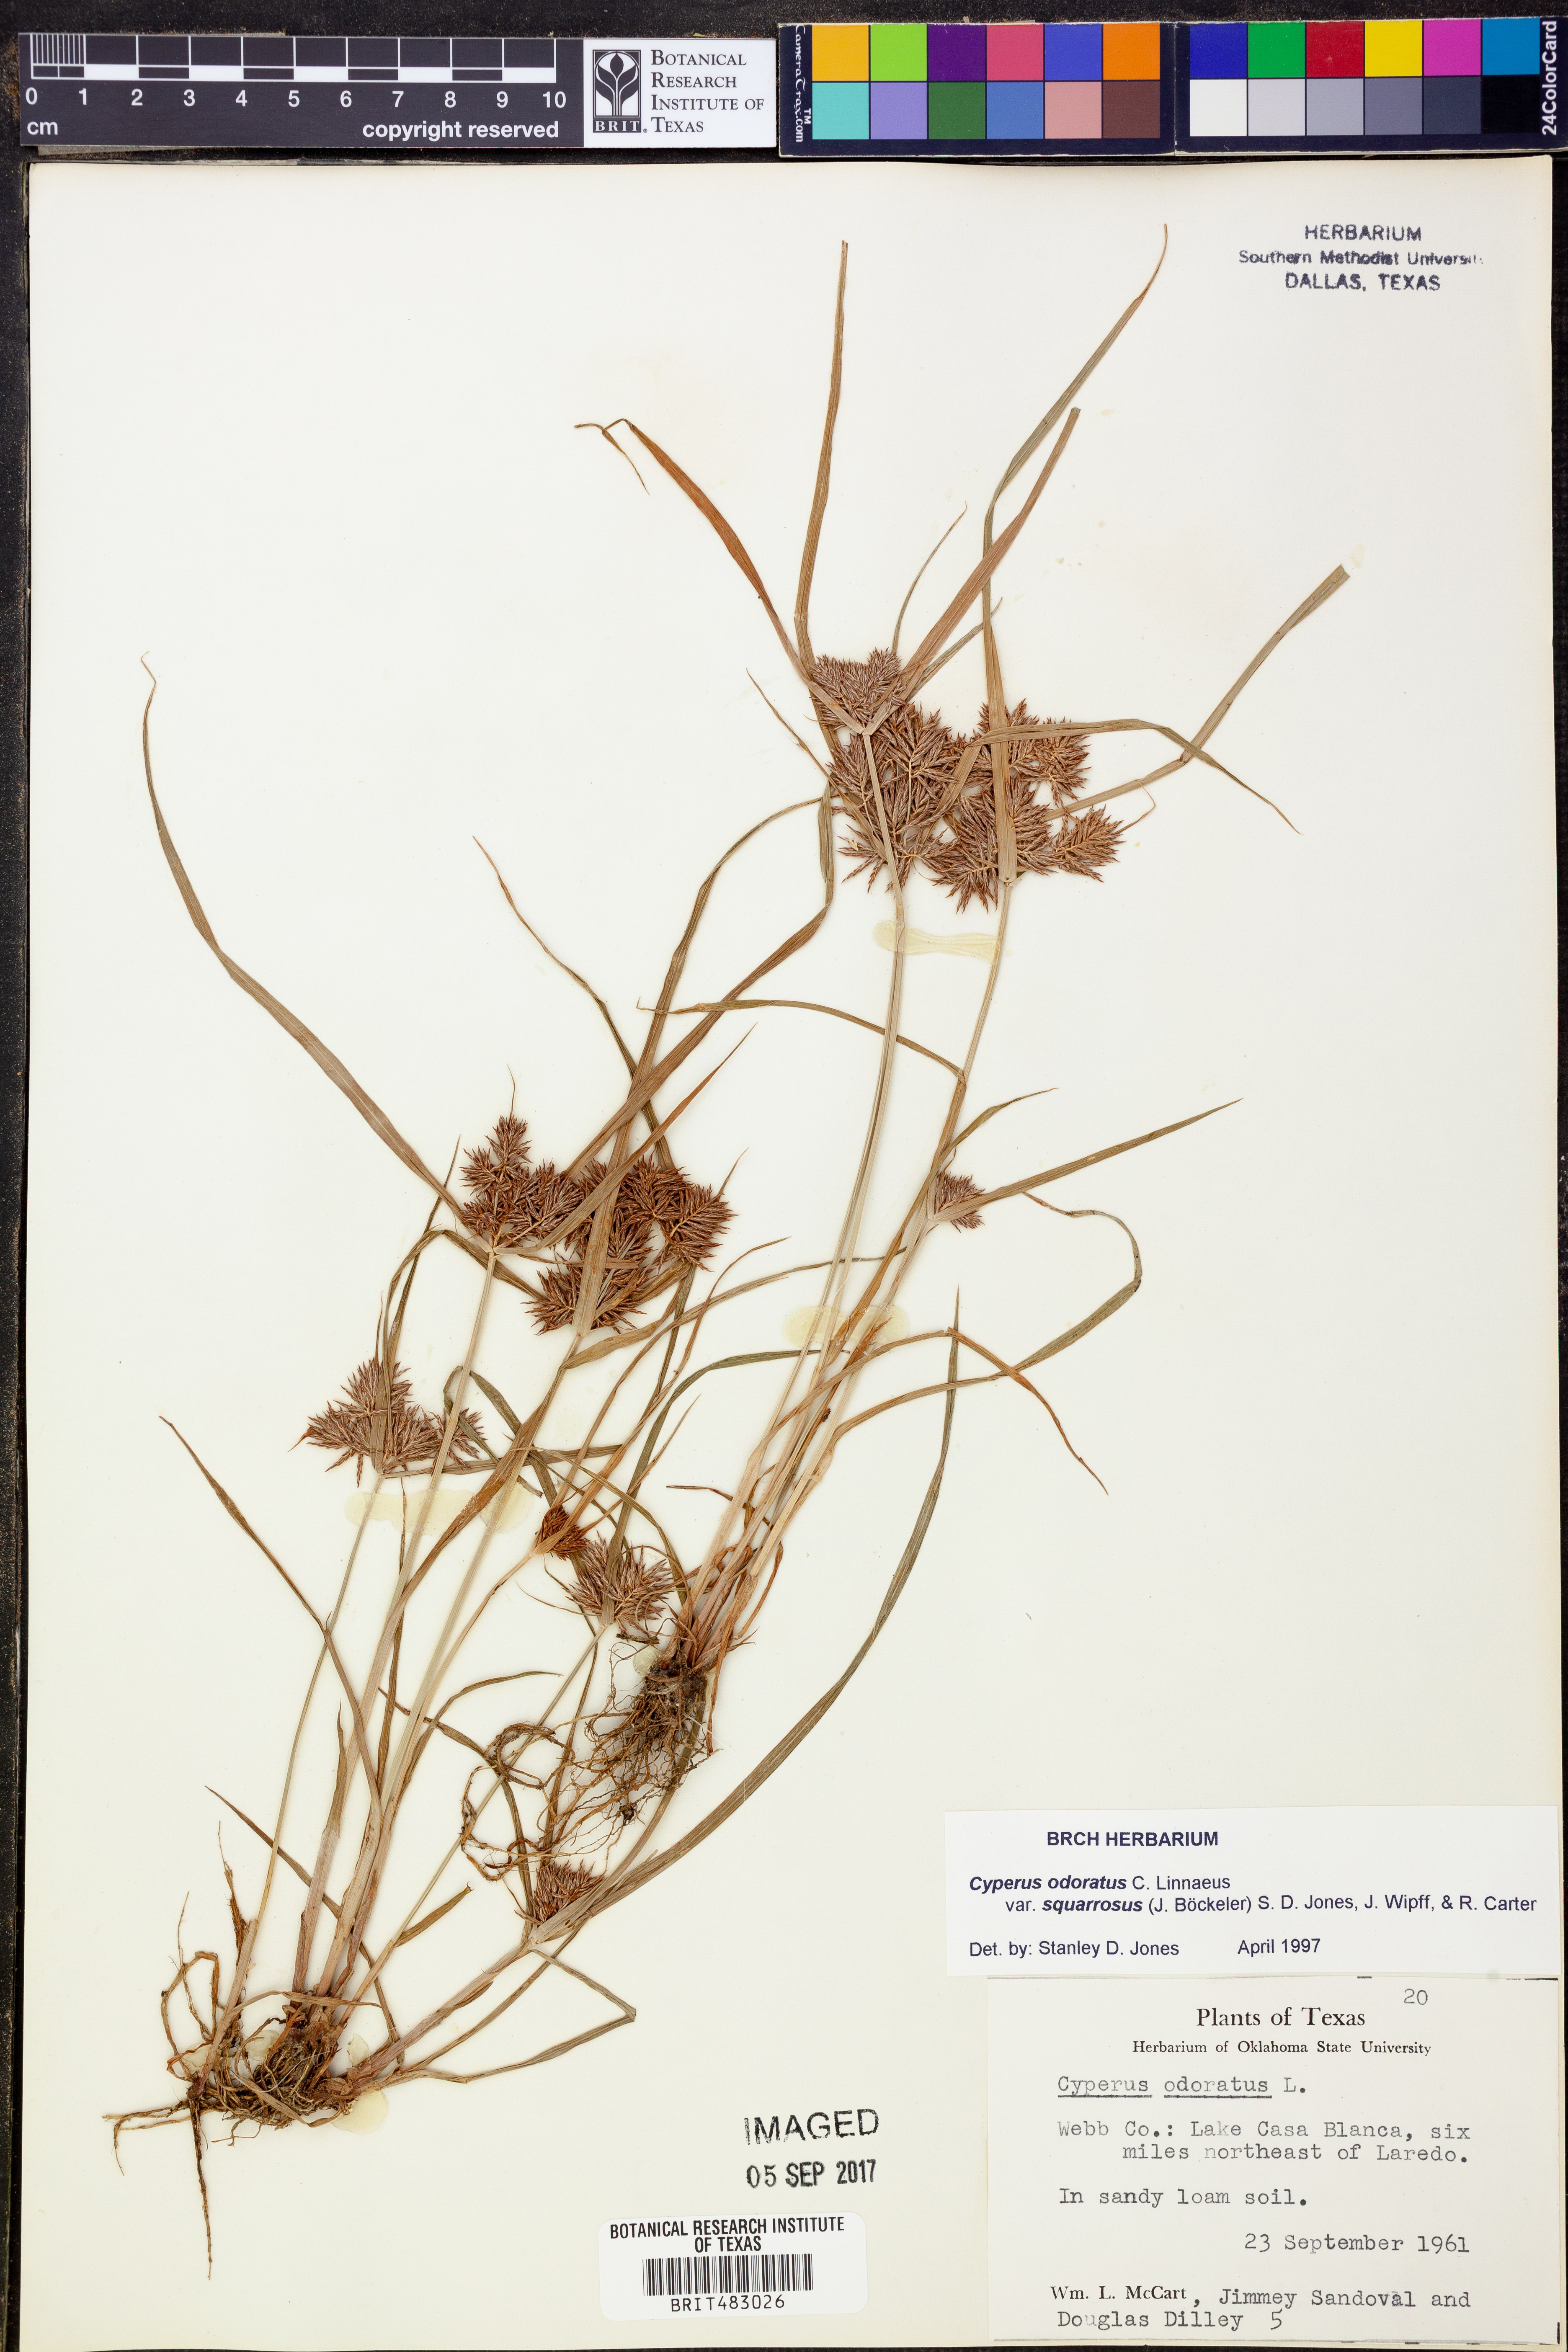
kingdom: Plantae
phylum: Tracheophyta
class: Liliopsida
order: Poales
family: Cyperaceae
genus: Cyperus
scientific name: Cyperus odoratus
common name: Fragrant flatsedge
